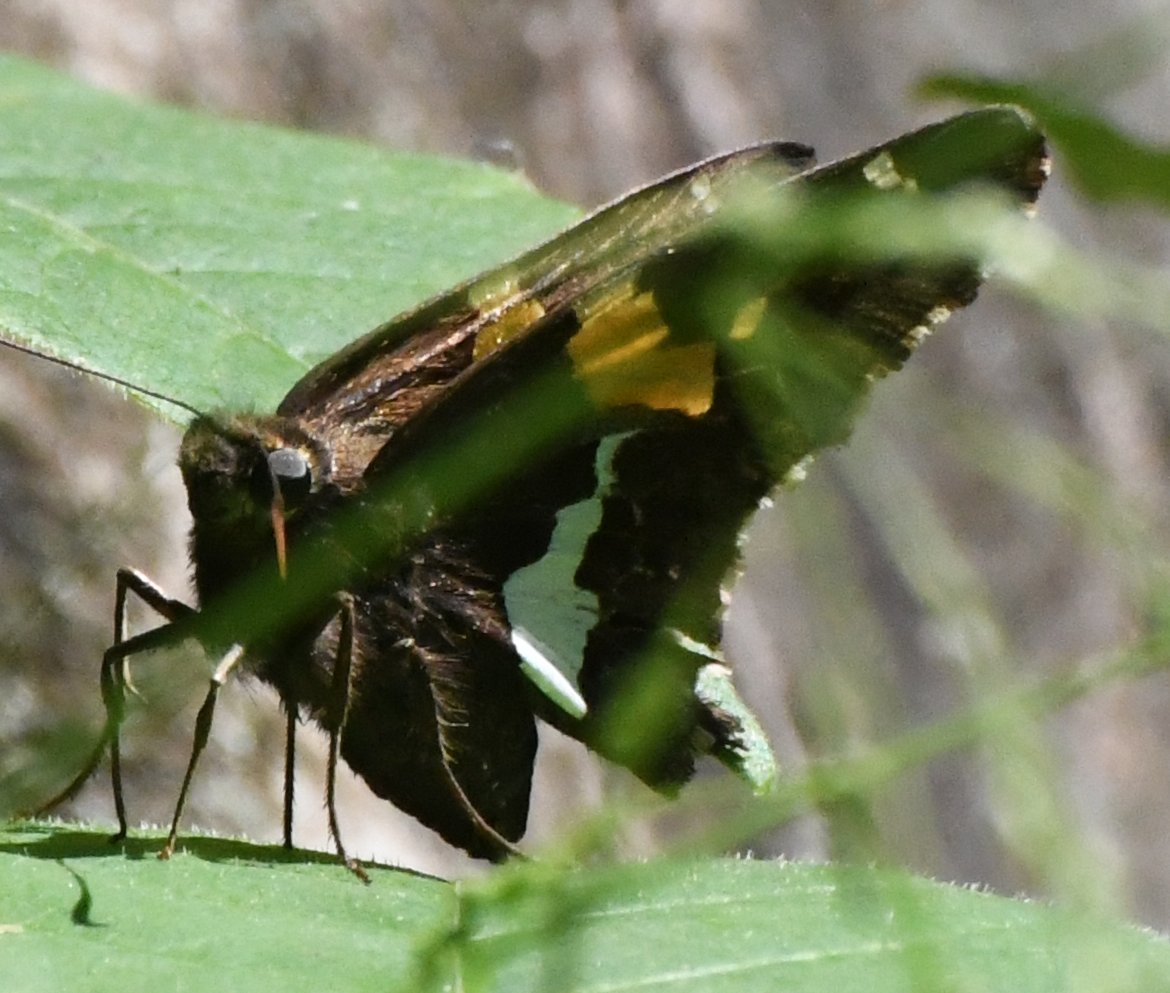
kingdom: Animalia
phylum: Arthropoda
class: Insecta
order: Lepidoptera
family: Hesperiidae
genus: Epargyreus
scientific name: Epargyreus clarus
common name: Silver-spotted Skipper
